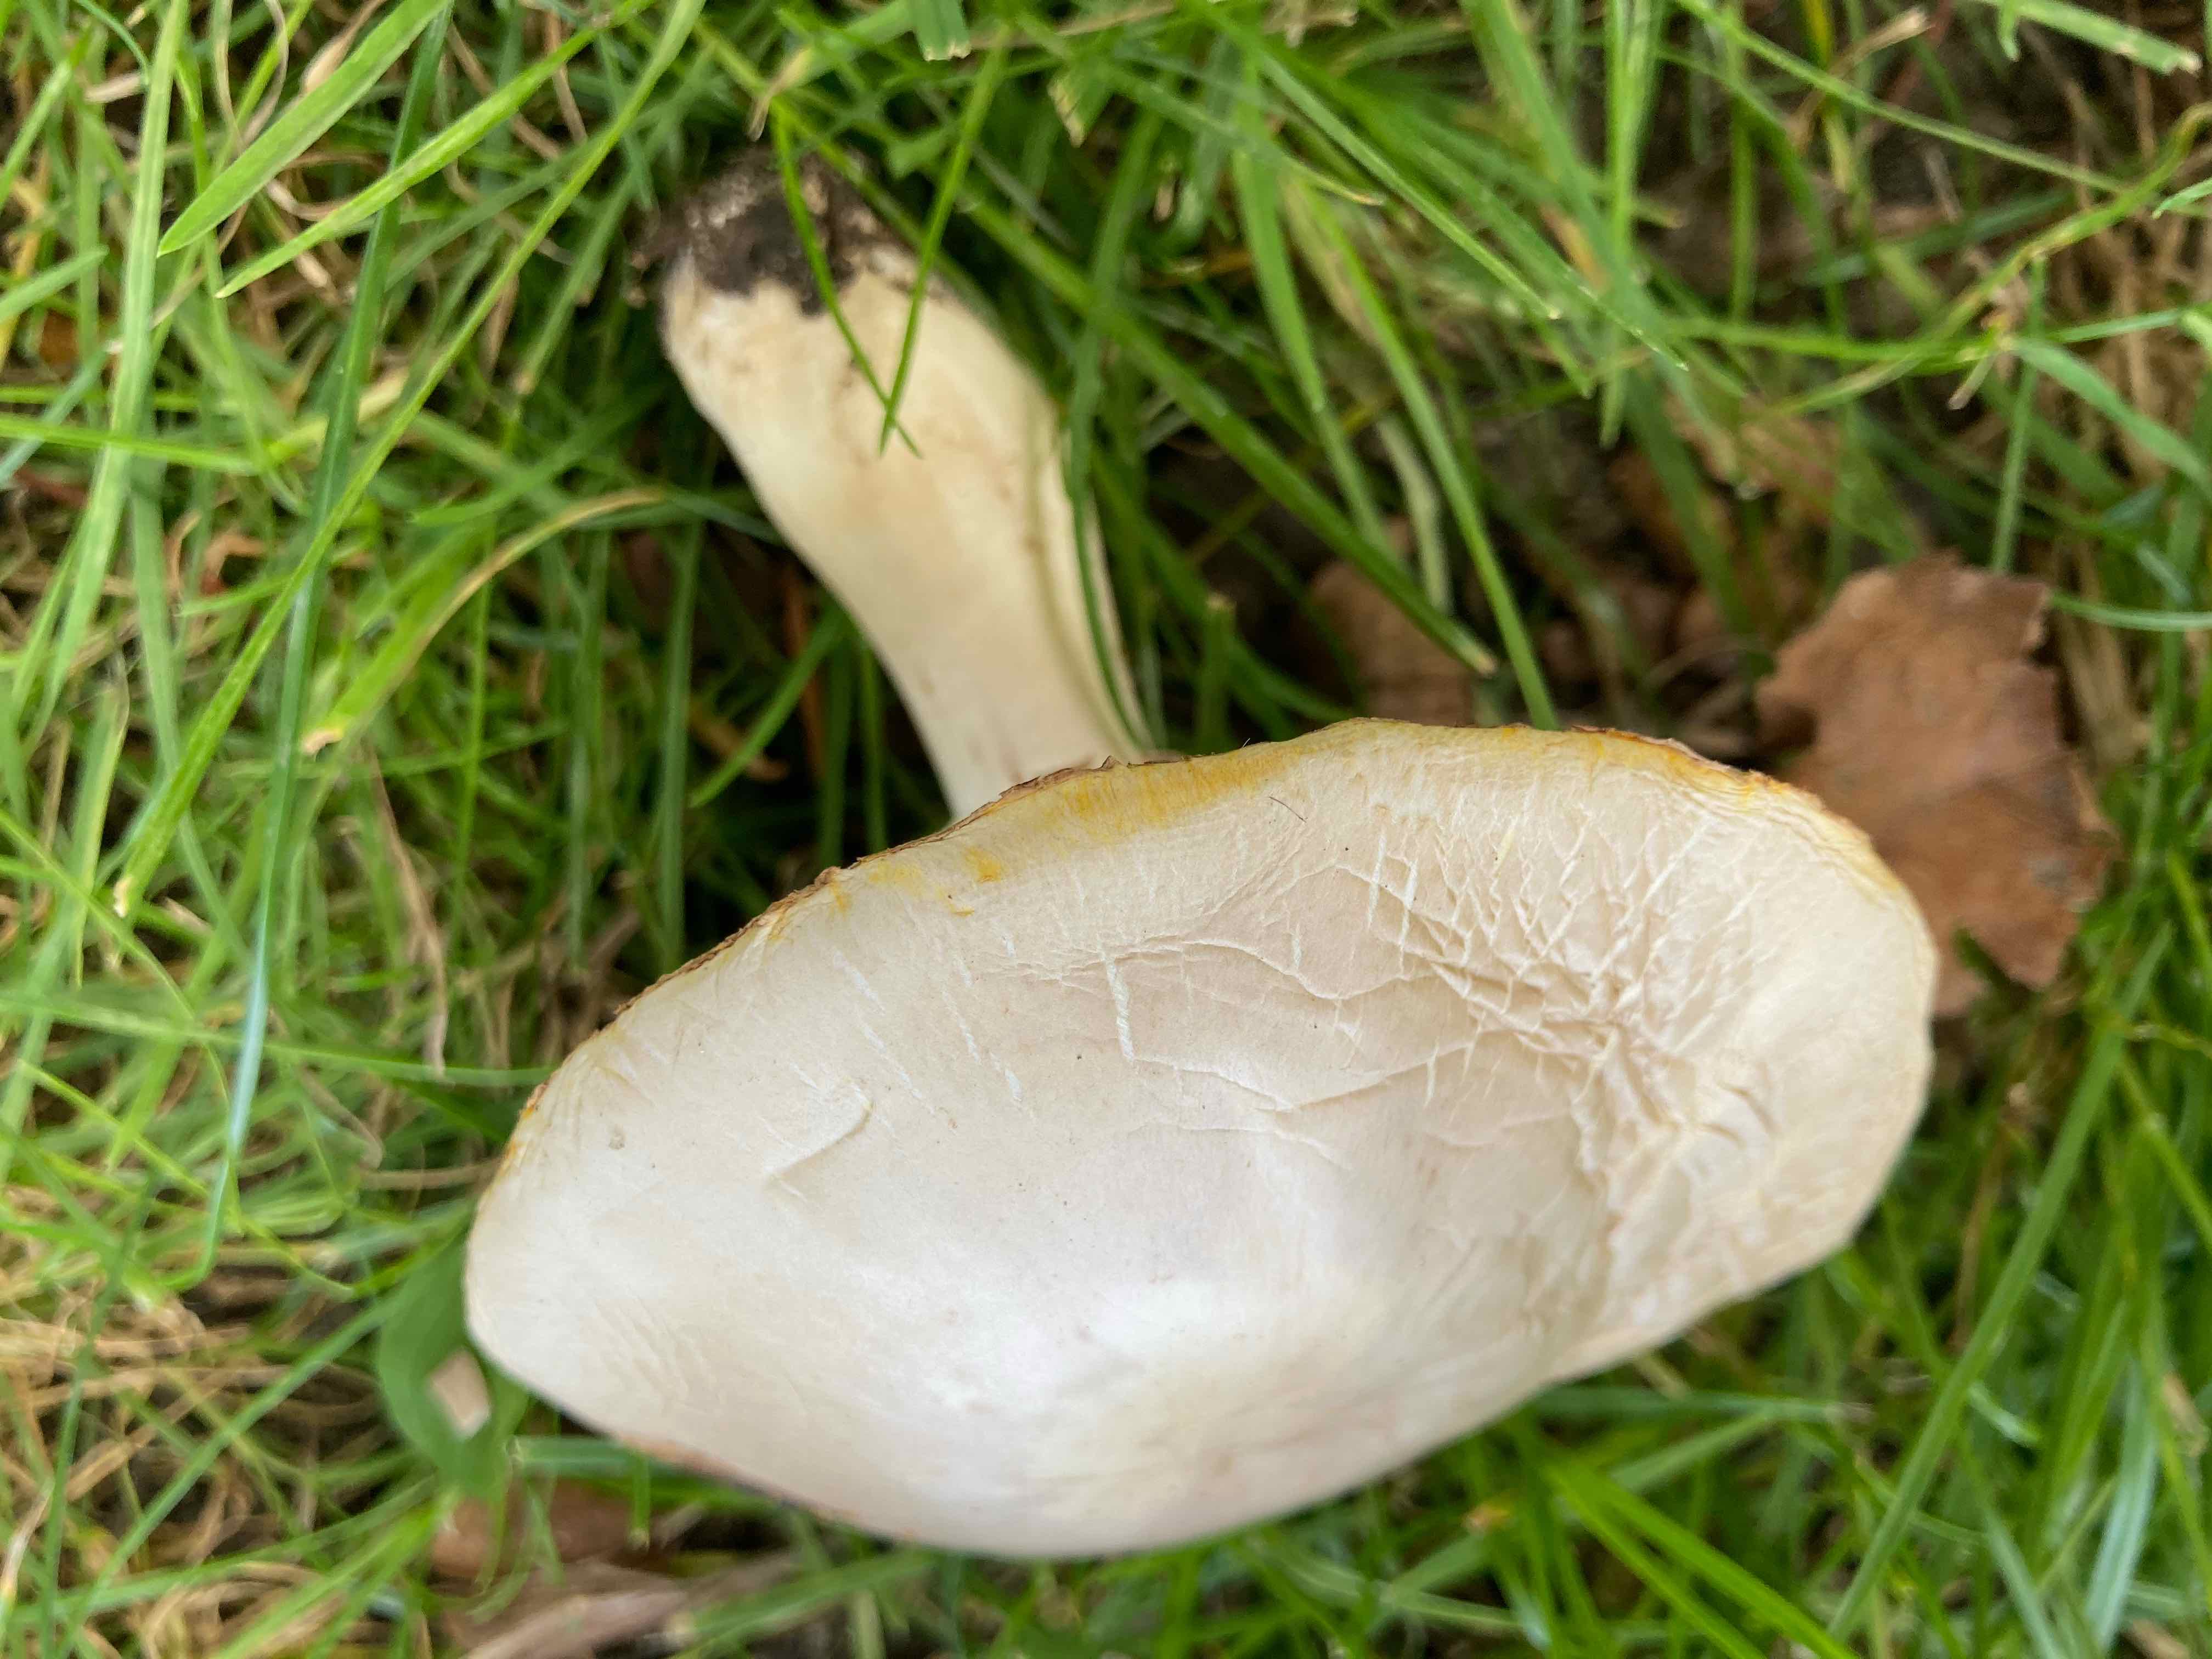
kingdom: Fungi
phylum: Basidiomycota
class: Agaricomycetes
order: Agaricales
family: Agaricaceae
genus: Agaricus
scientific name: Agaricus xanthodermus
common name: karbol-champignon
